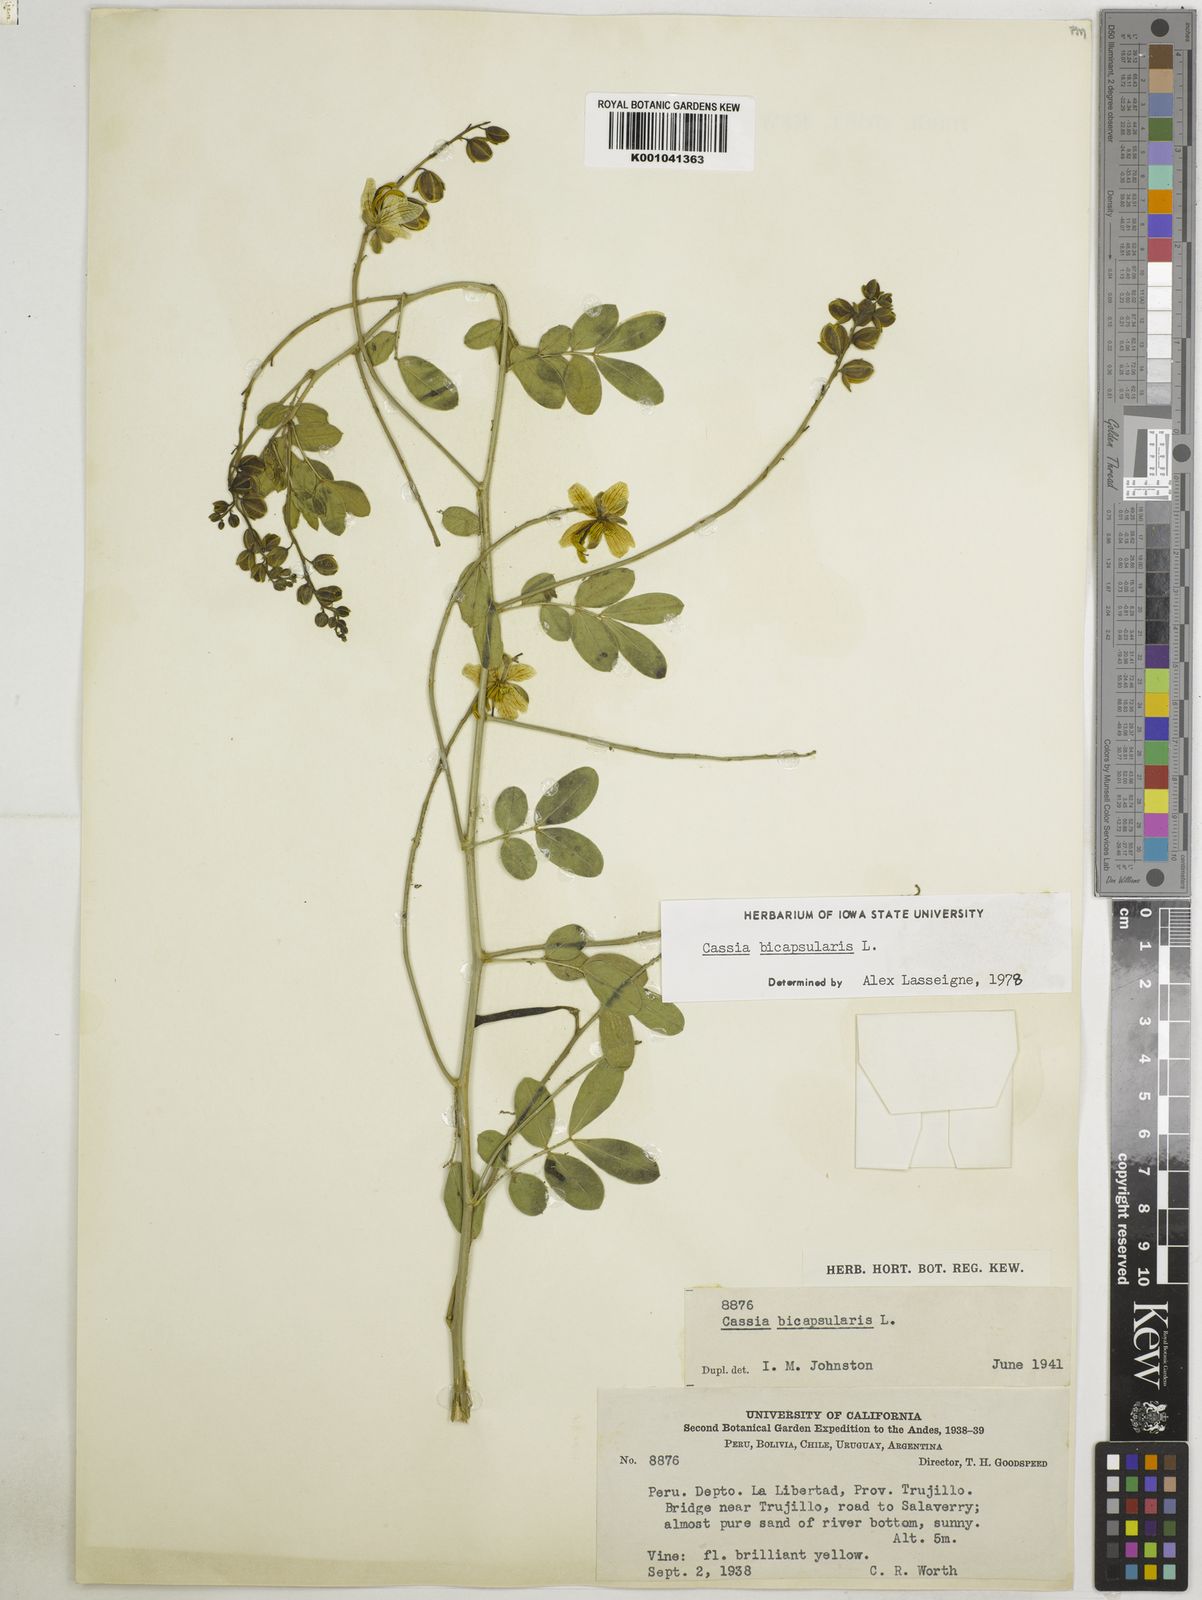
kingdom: Plantae
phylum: Tracheophyta
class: Magnoliopsida
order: Fabales
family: Fabaceae
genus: Senna
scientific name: Senna bicapsularis
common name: Christmasbush
